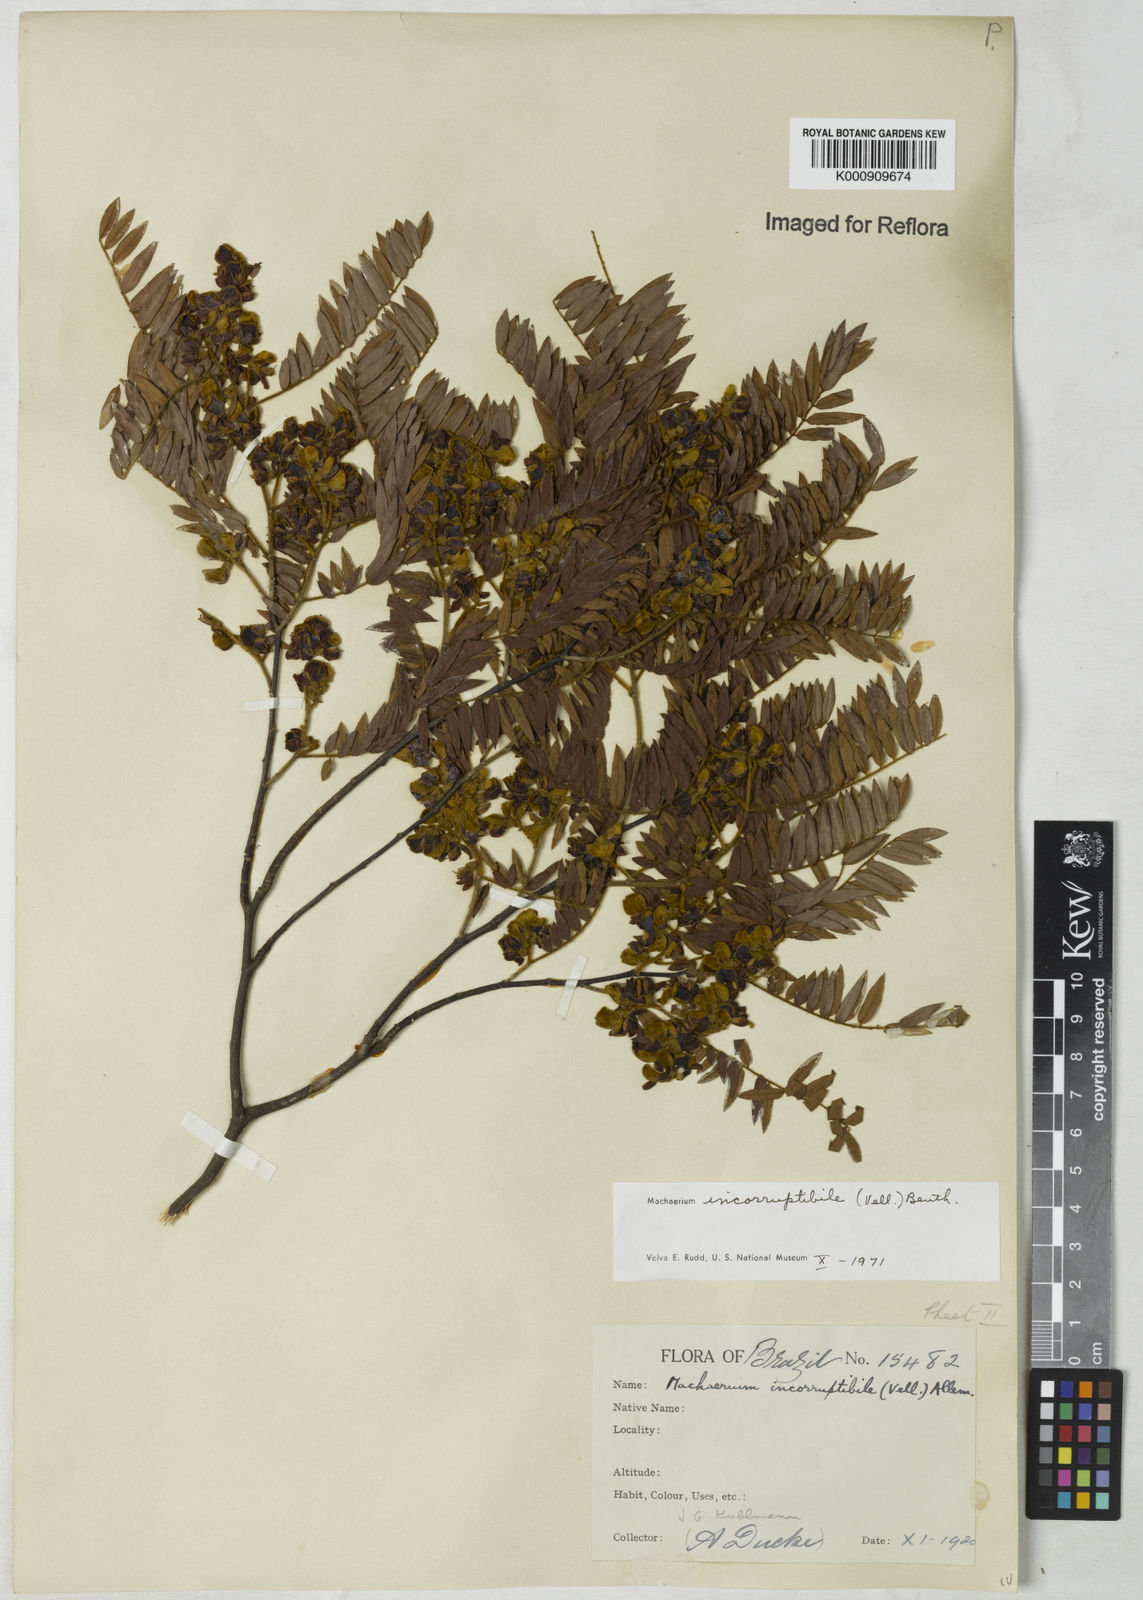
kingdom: Plantae
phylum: Tracheophyta
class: Magnoliopsida
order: Fabales
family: Fabaceae
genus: Machaerium
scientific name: Machaerium incorruptibile
